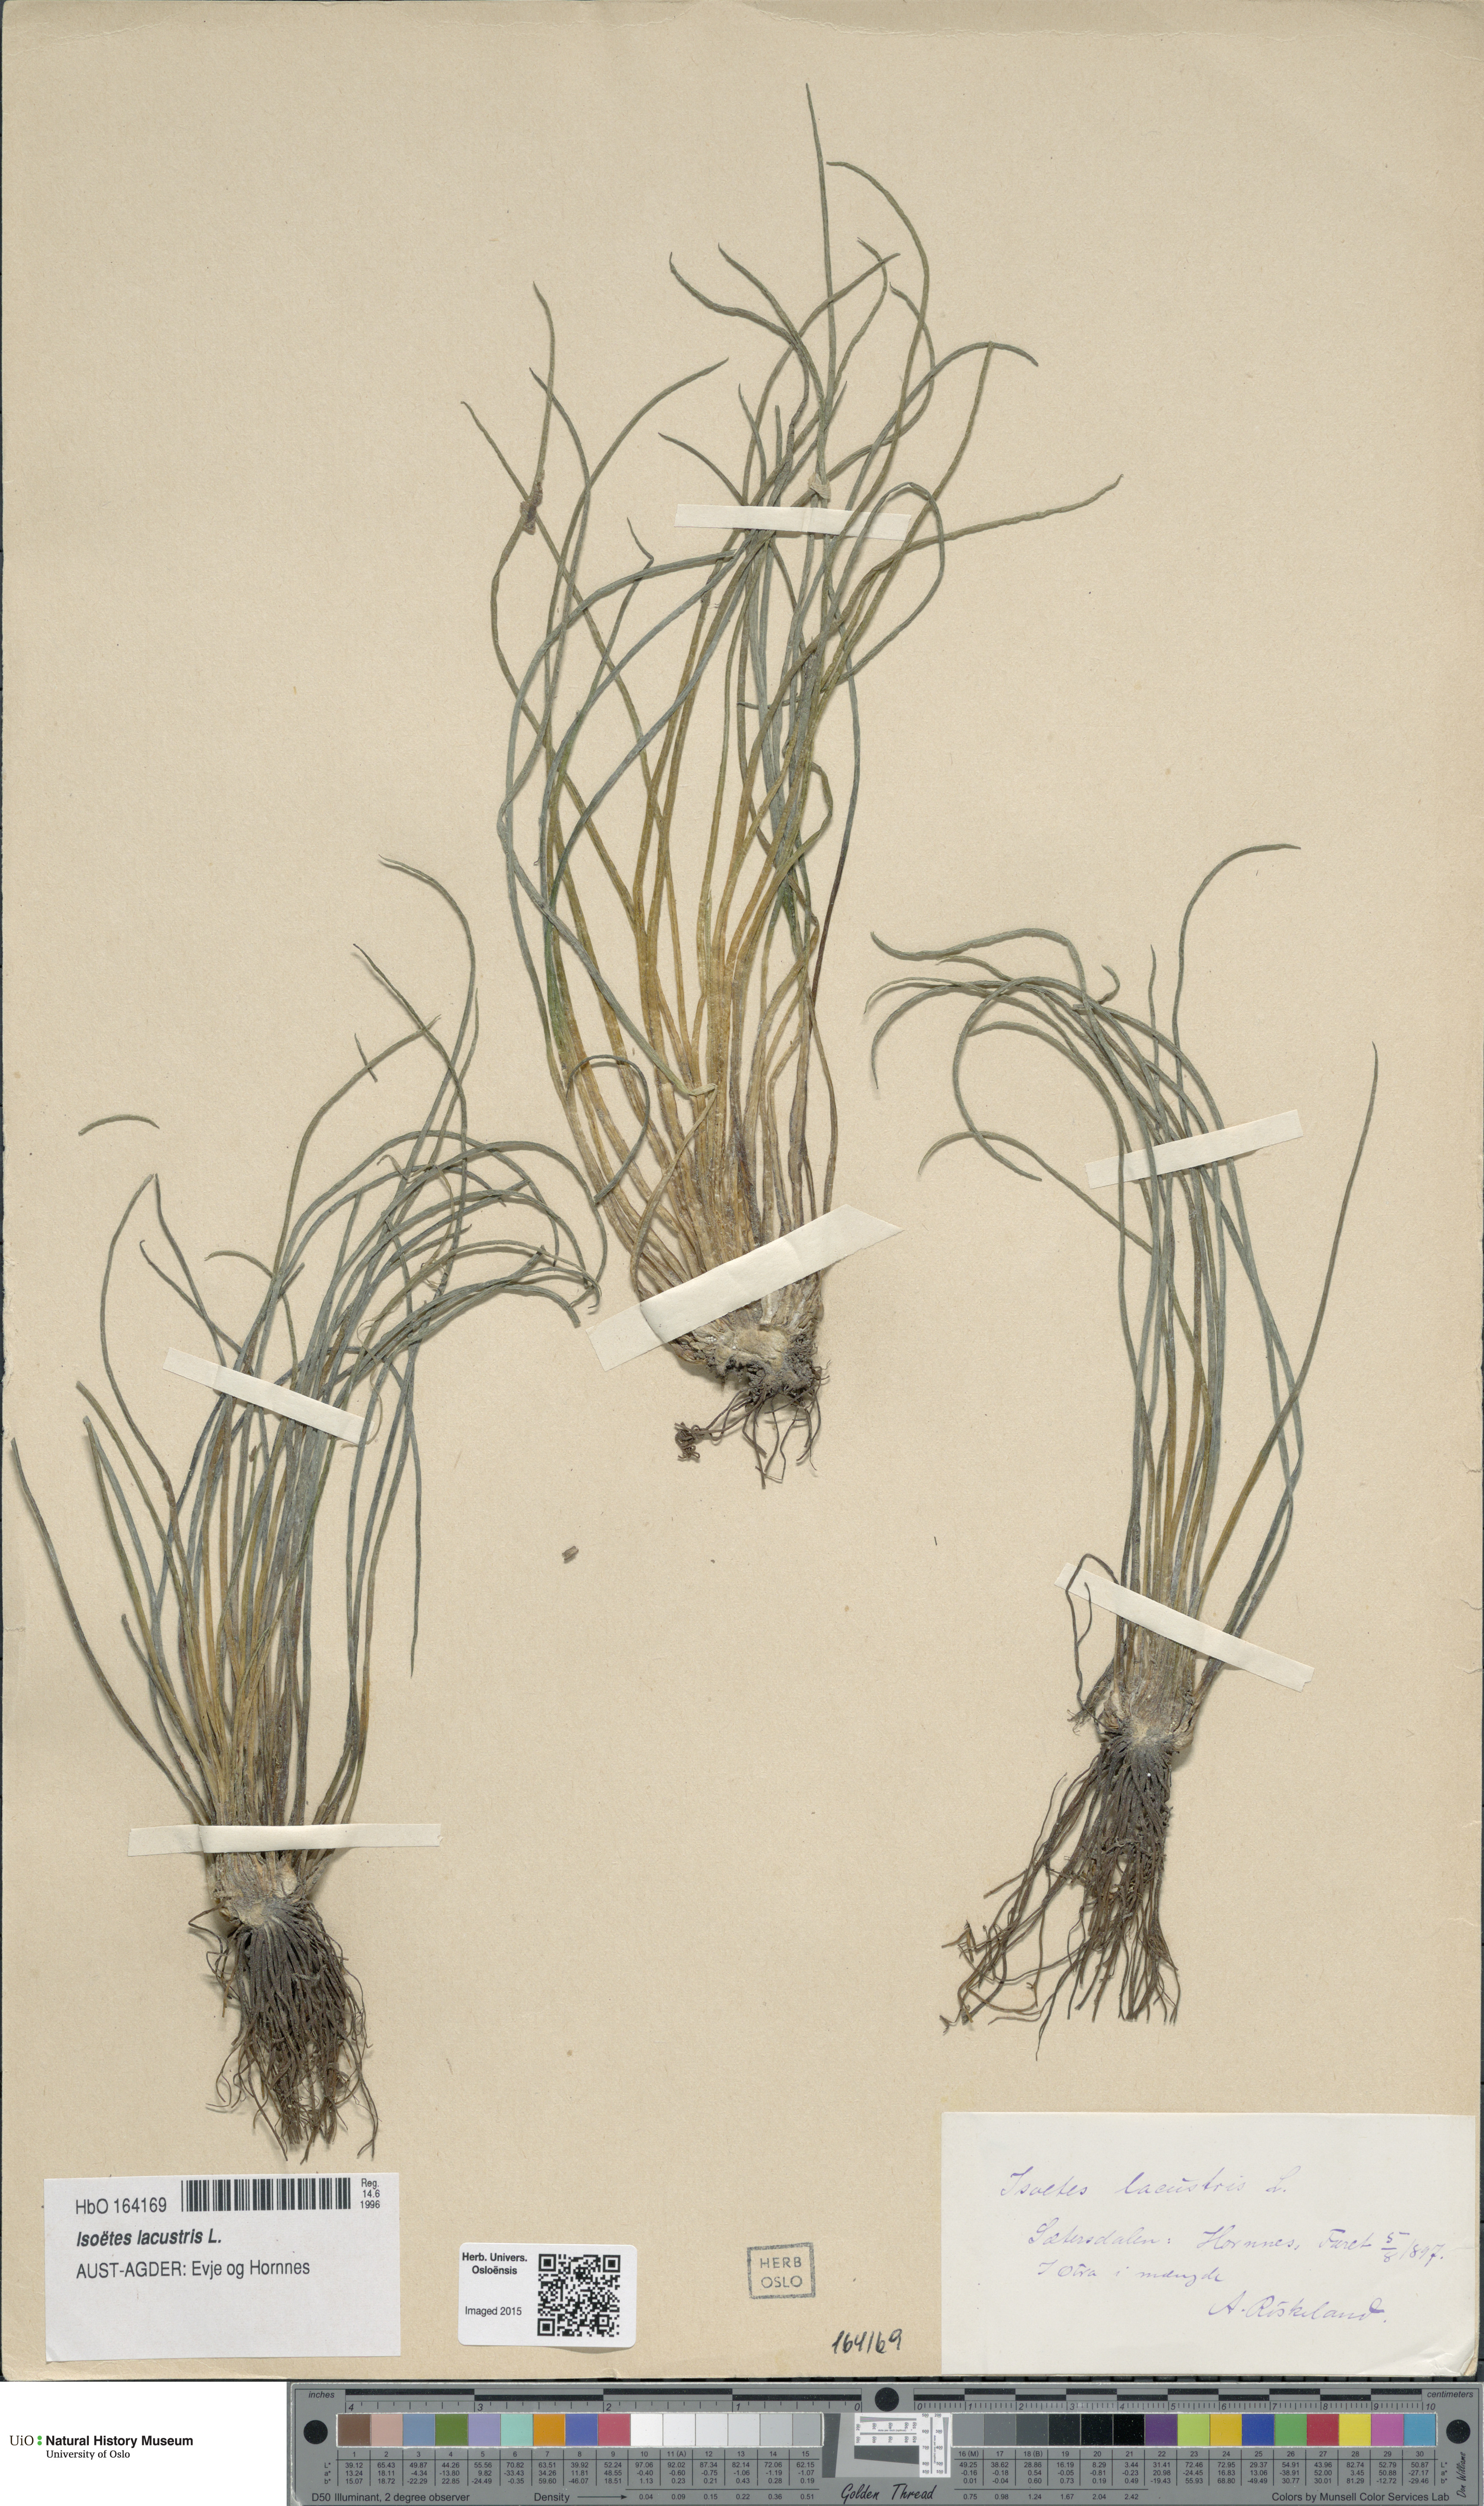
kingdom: Plantae
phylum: Tracheophyta
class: Lycopodiopsida
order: Isoetales
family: Isoetaceae
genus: Isoetes
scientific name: Isoetes lacustris
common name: Common quillwort
